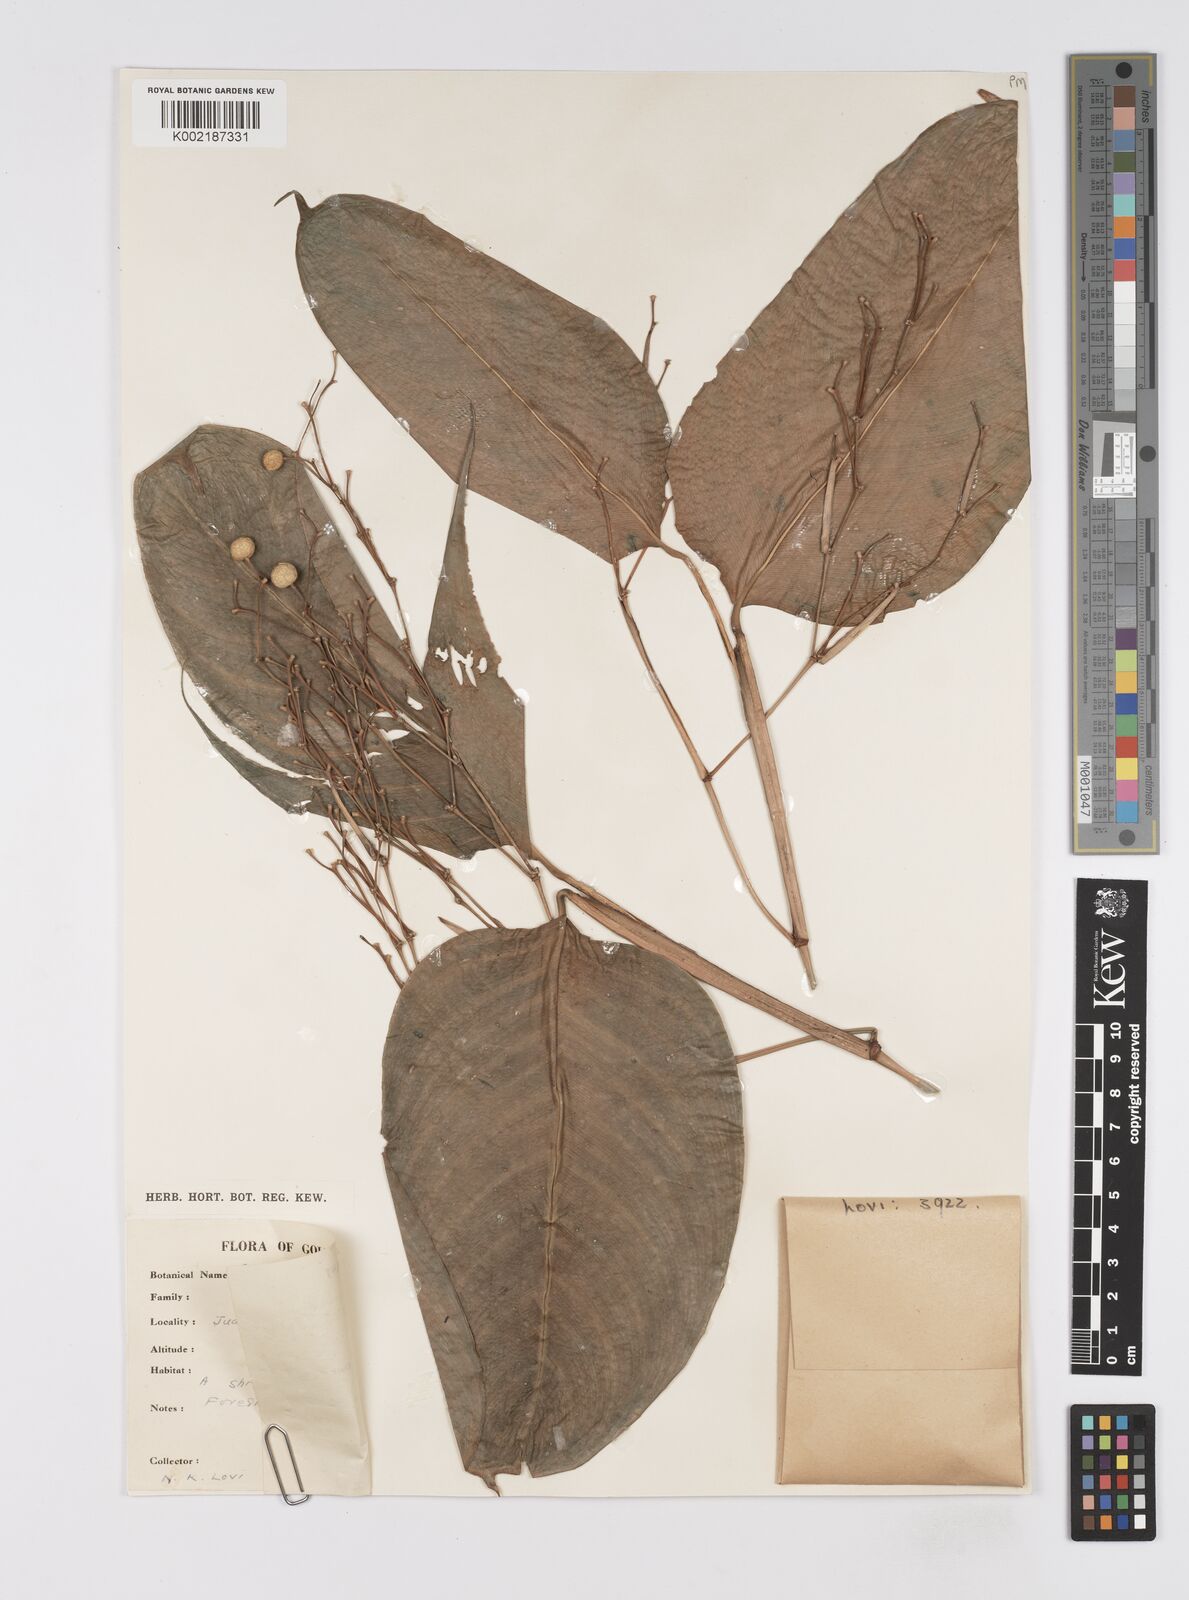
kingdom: Plantae
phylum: Tracheophyta
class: Liliopsida
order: Zingiberales
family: Marantaceae
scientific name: Marantaceae
